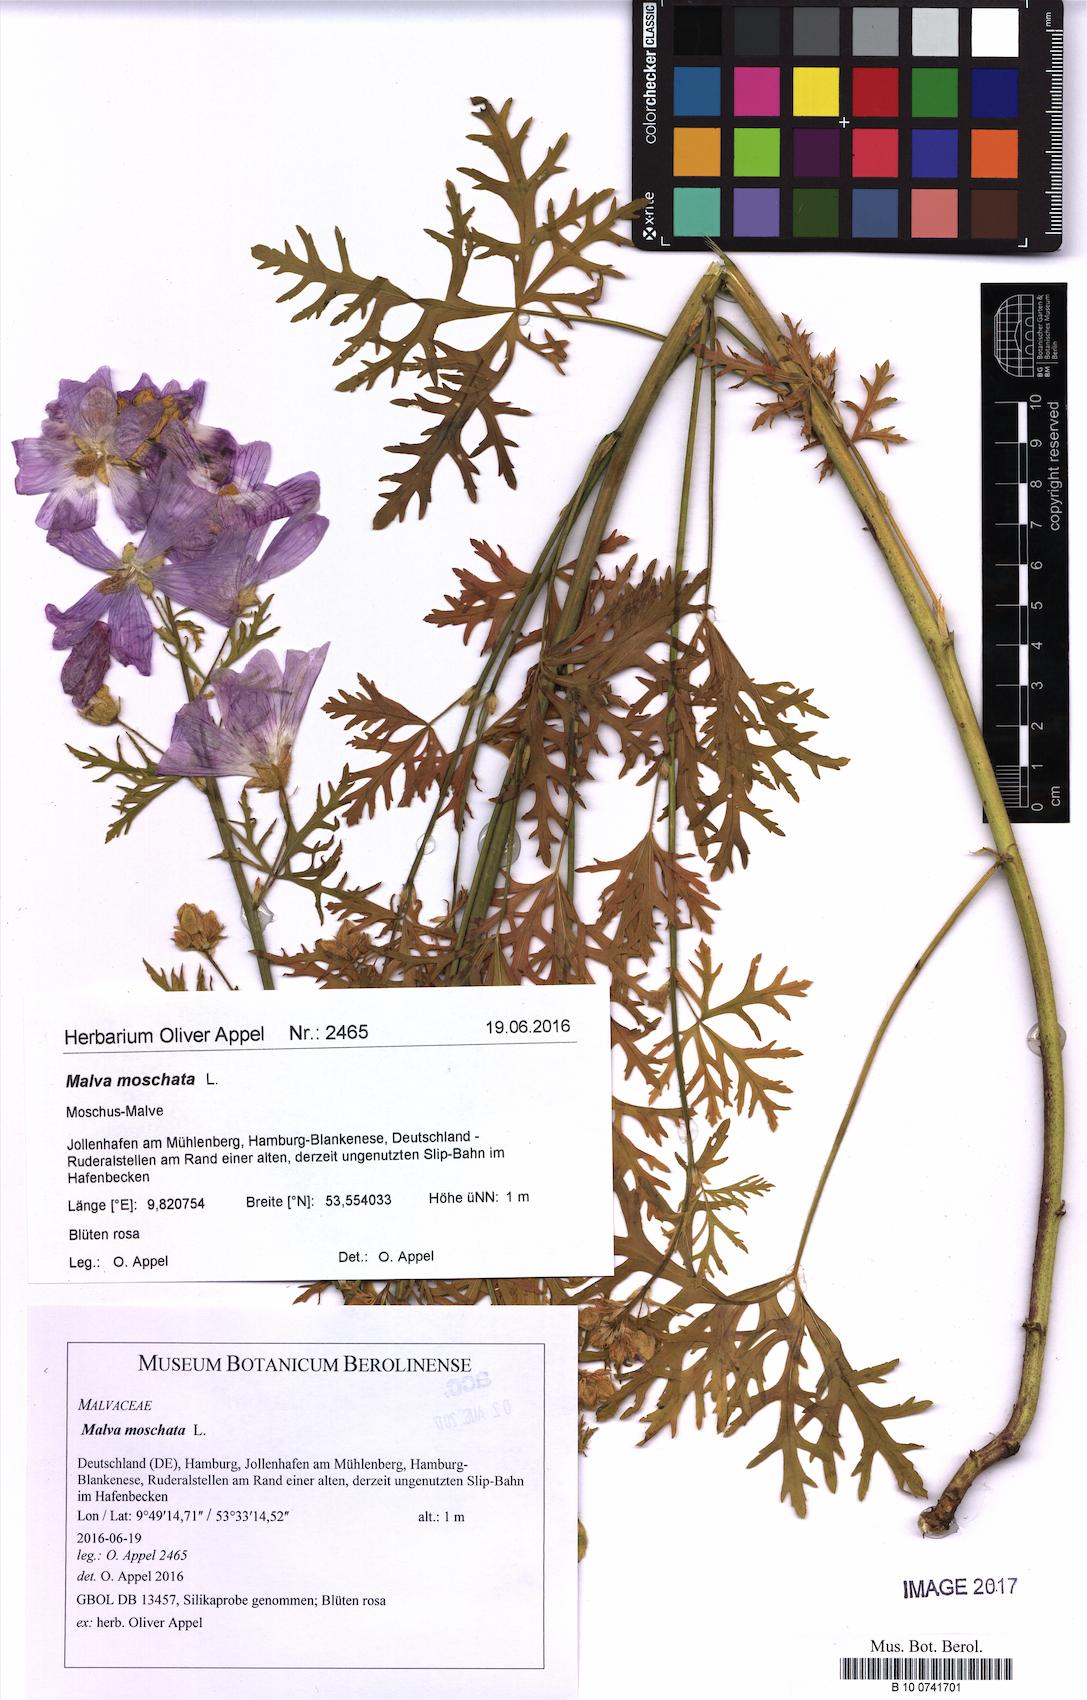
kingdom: Plantae
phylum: Tracheophyta
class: Magnoliopsida
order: Malvales
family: Malvaceae
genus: Malva
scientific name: Malva moschata
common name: Musk mallow
